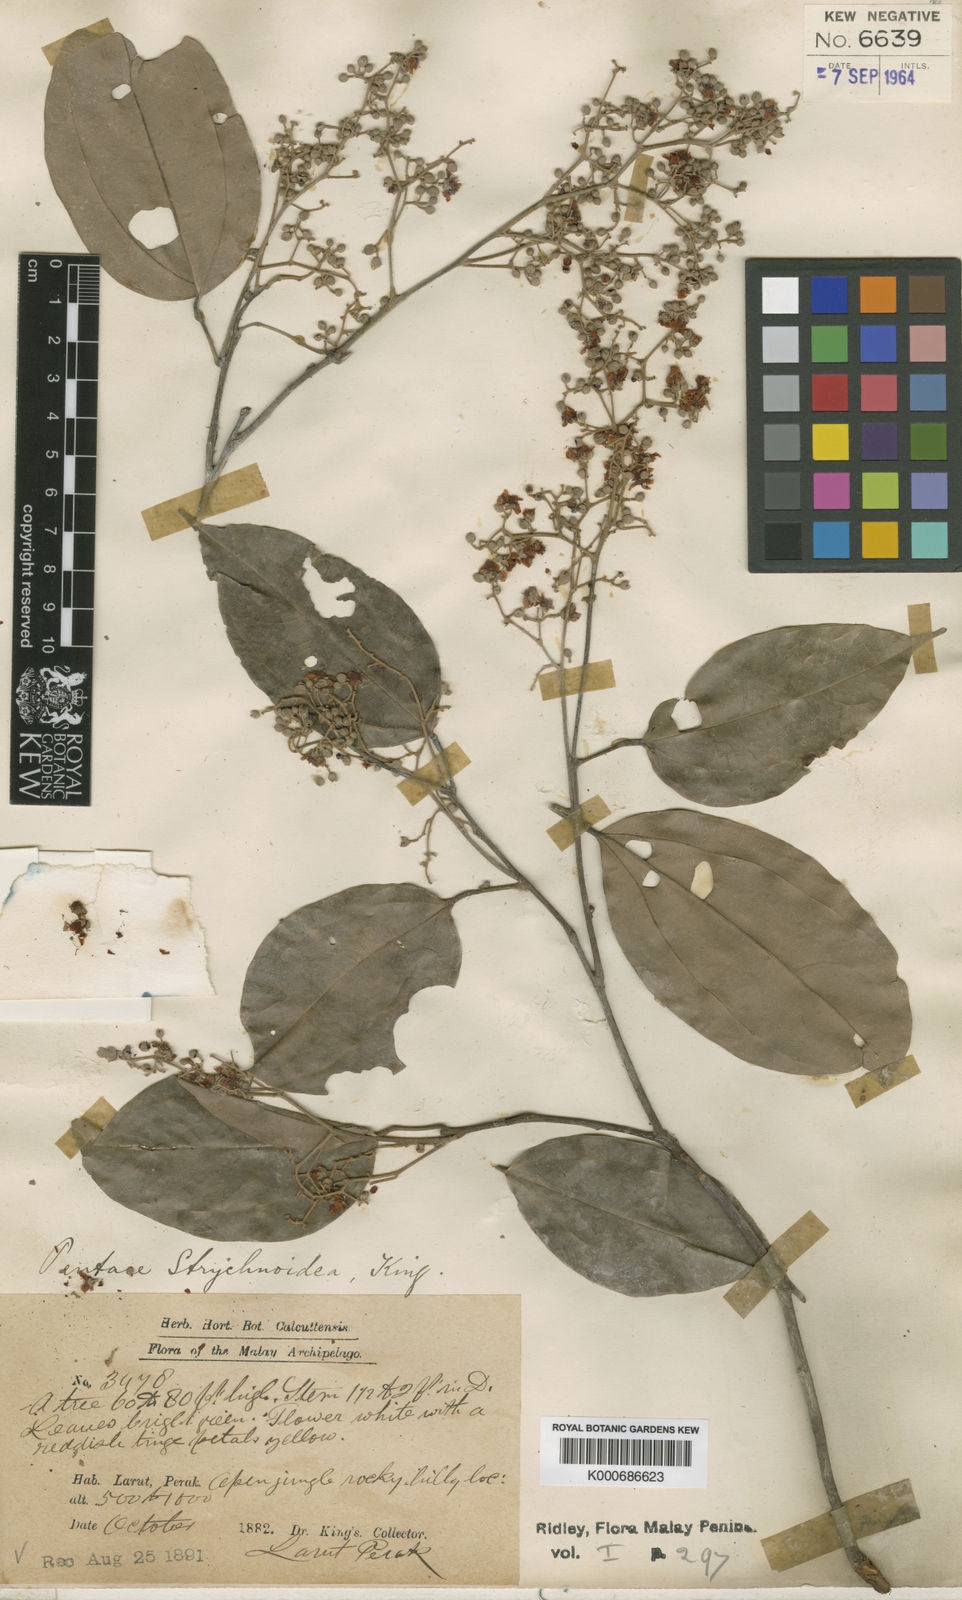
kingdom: Plantae
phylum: Tracheophyta
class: Magnoliopsida
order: Malvales
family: Malvaceae
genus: Pentace
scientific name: Pentace strychnoidea
